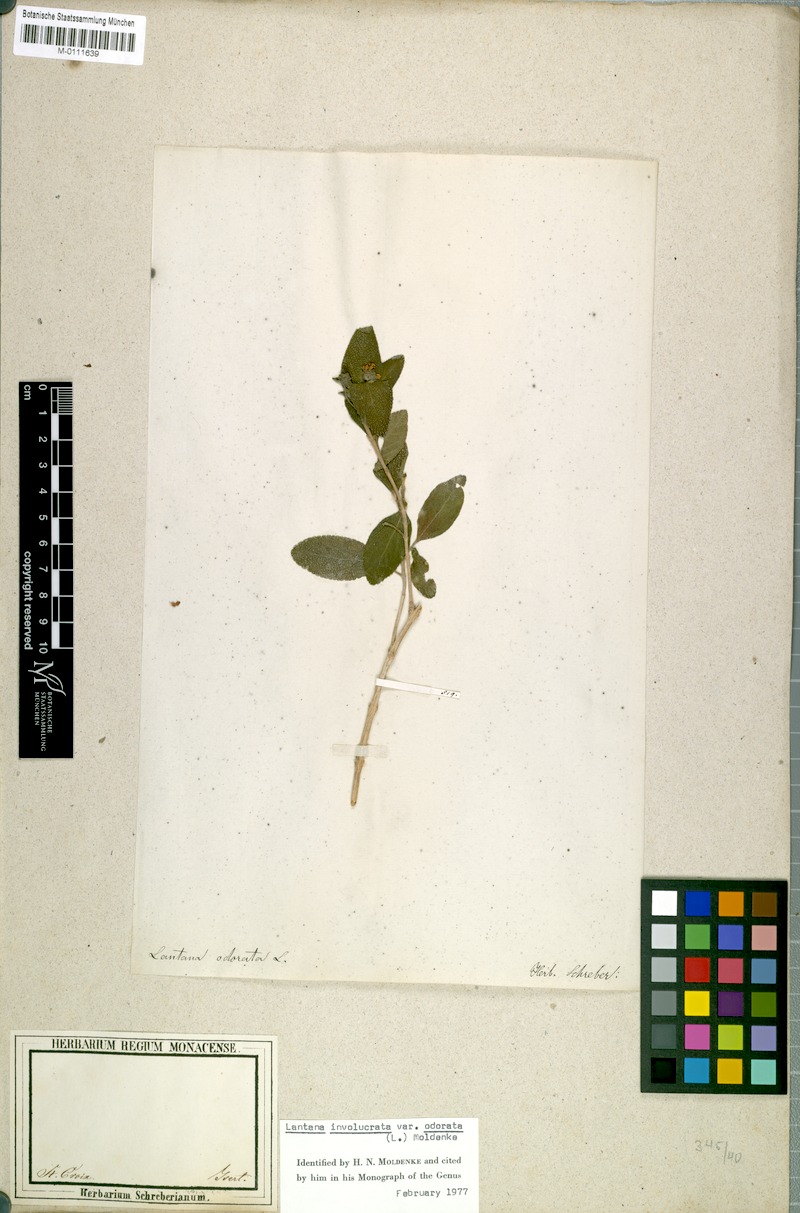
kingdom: Plantae
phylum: Tracheophyta
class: Magnoliopsida
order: Lamiales
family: Verbenaceae
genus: Lantana
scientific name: Lantana involucrata
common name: Black sage
